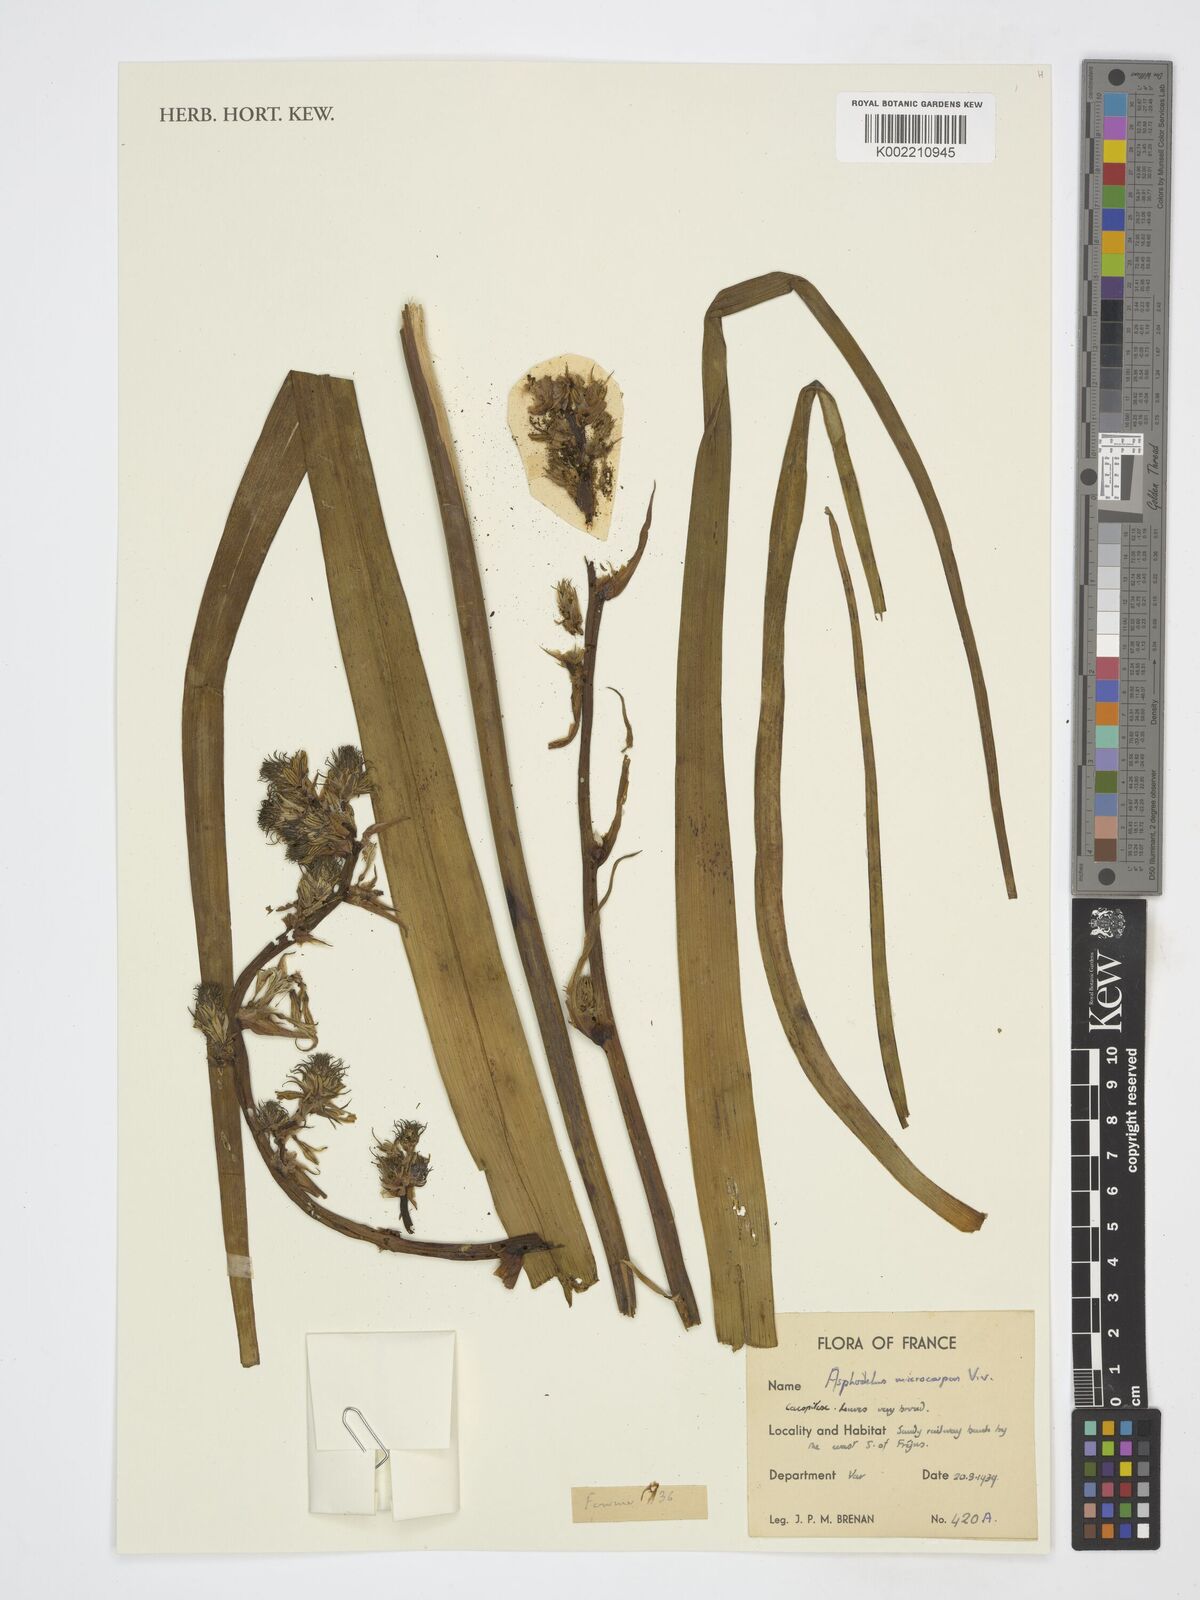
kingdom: Plantae
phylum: Tracheophyta
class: Liliopsida
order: Asparagales
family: Asphodelaceae
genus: Asphodelus
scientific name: Asphodelus ramosus
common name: Silverrod
